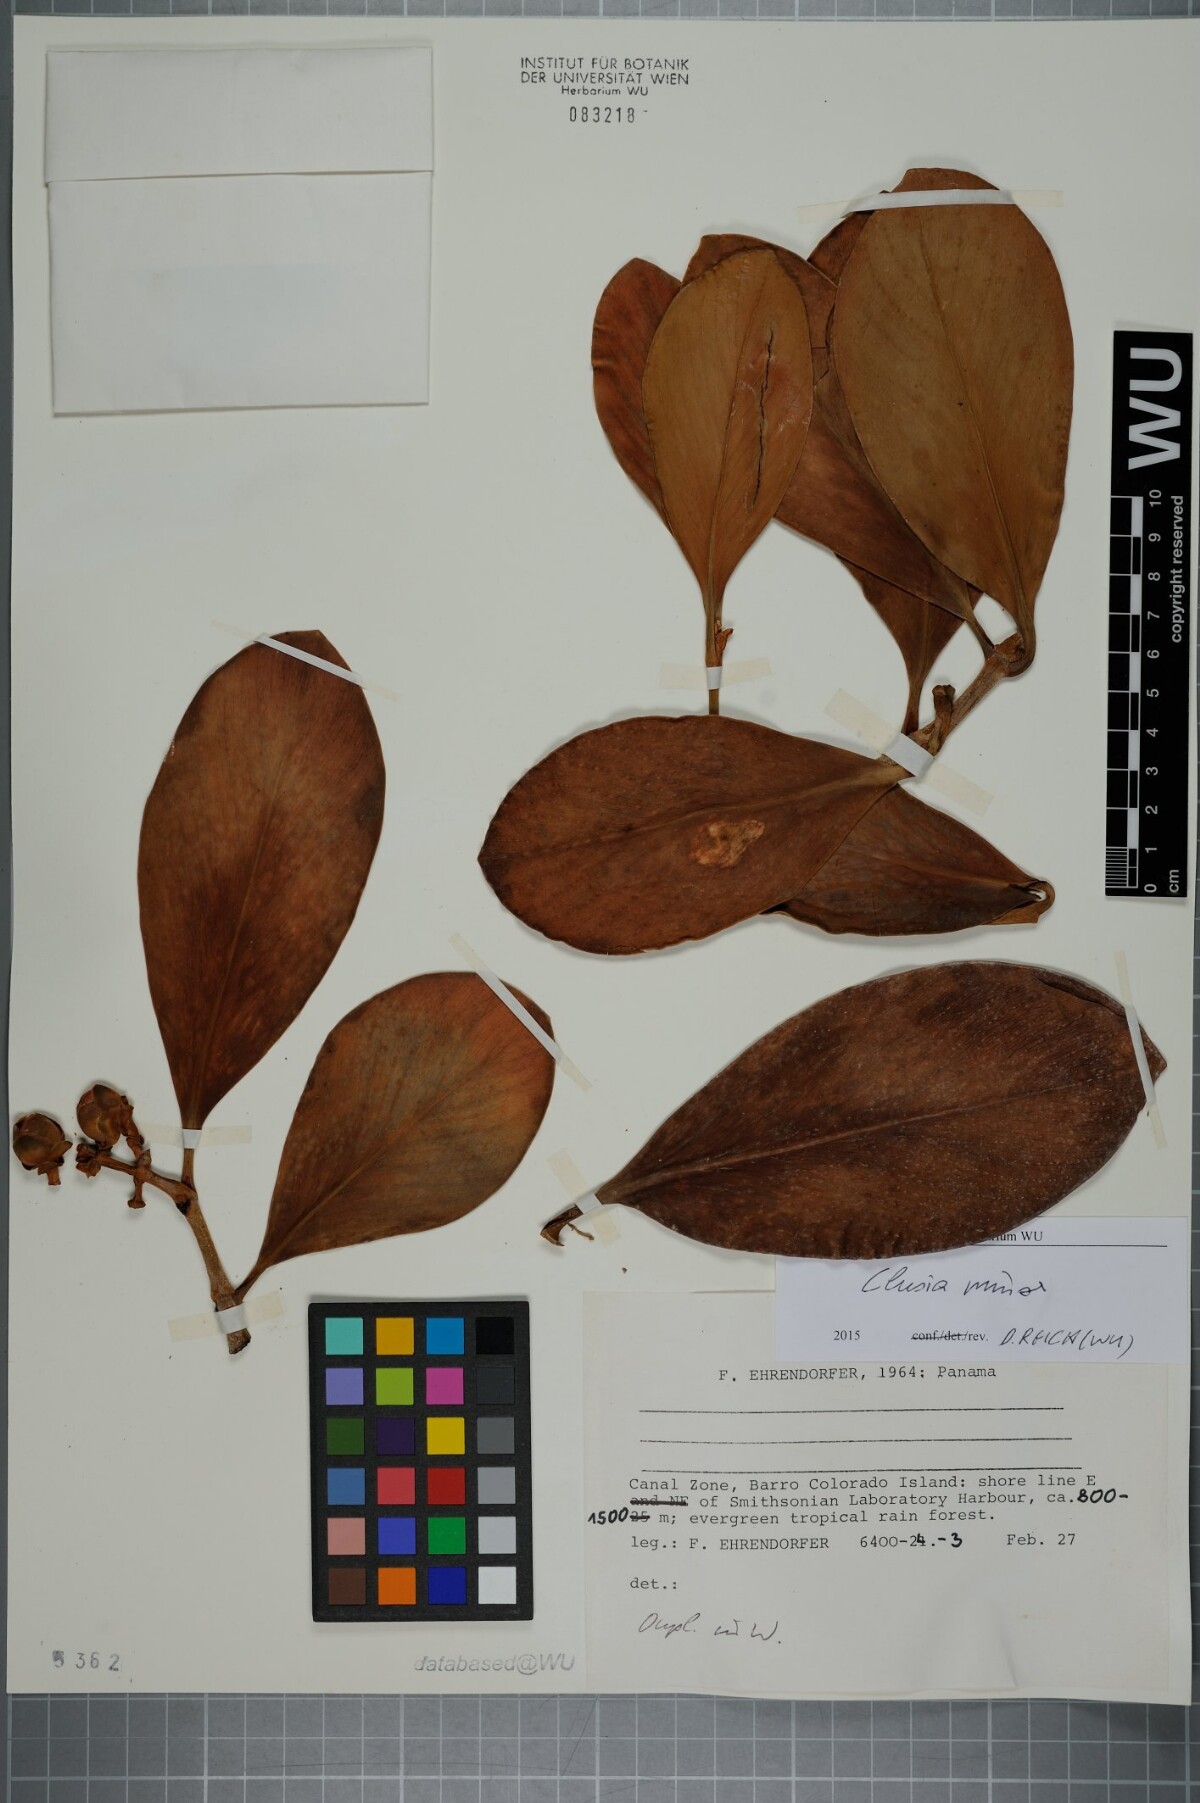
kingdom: Plantae
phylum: Tracheophyta
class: Magnoliopsida
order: Malpighiales
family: Clusiaceae
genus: Clusia
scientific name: Clusia minor
